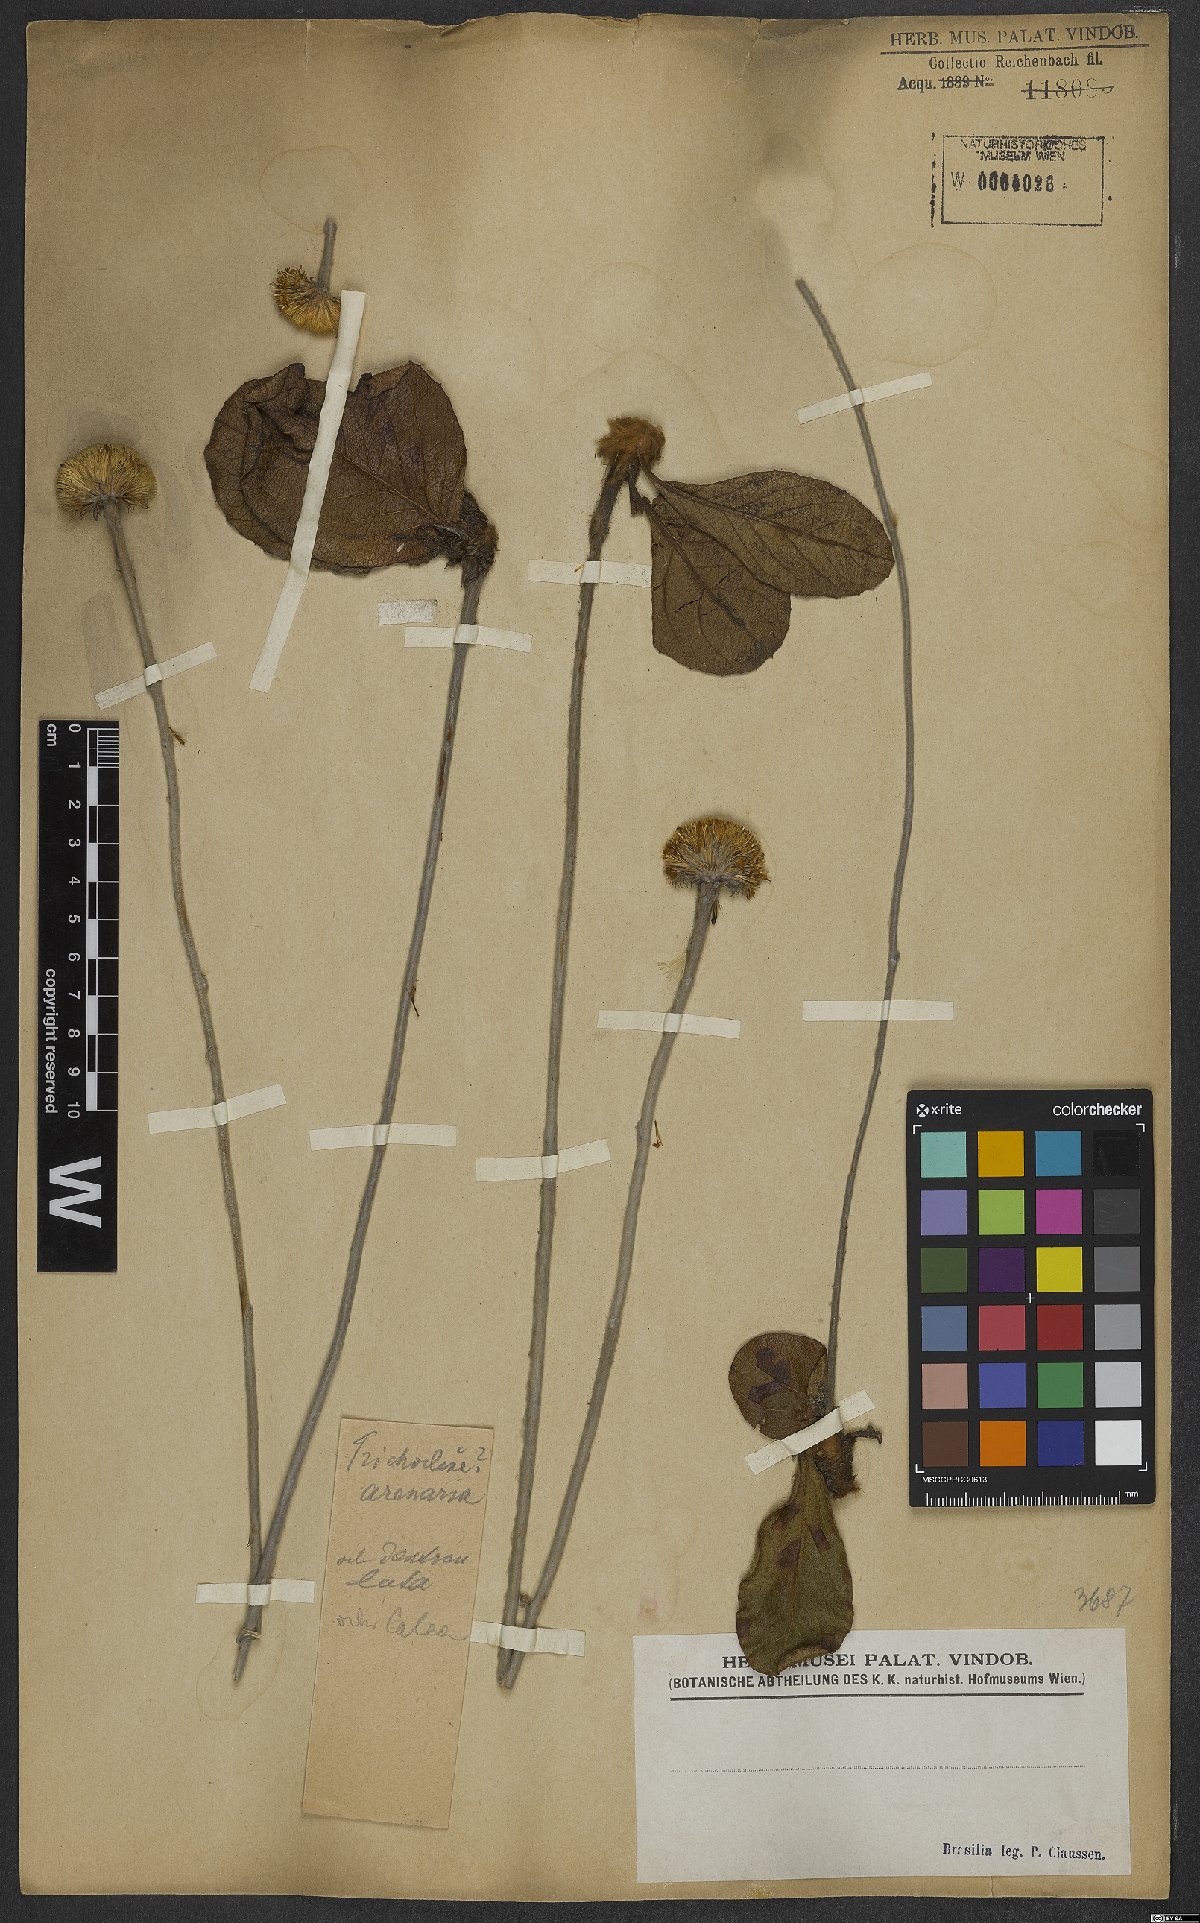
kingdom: Plantae
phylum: Tracheophyta
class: Magnoliopsida
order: Asterales
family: Asteraceae
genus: Richterago
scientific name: Richterago arenaria
